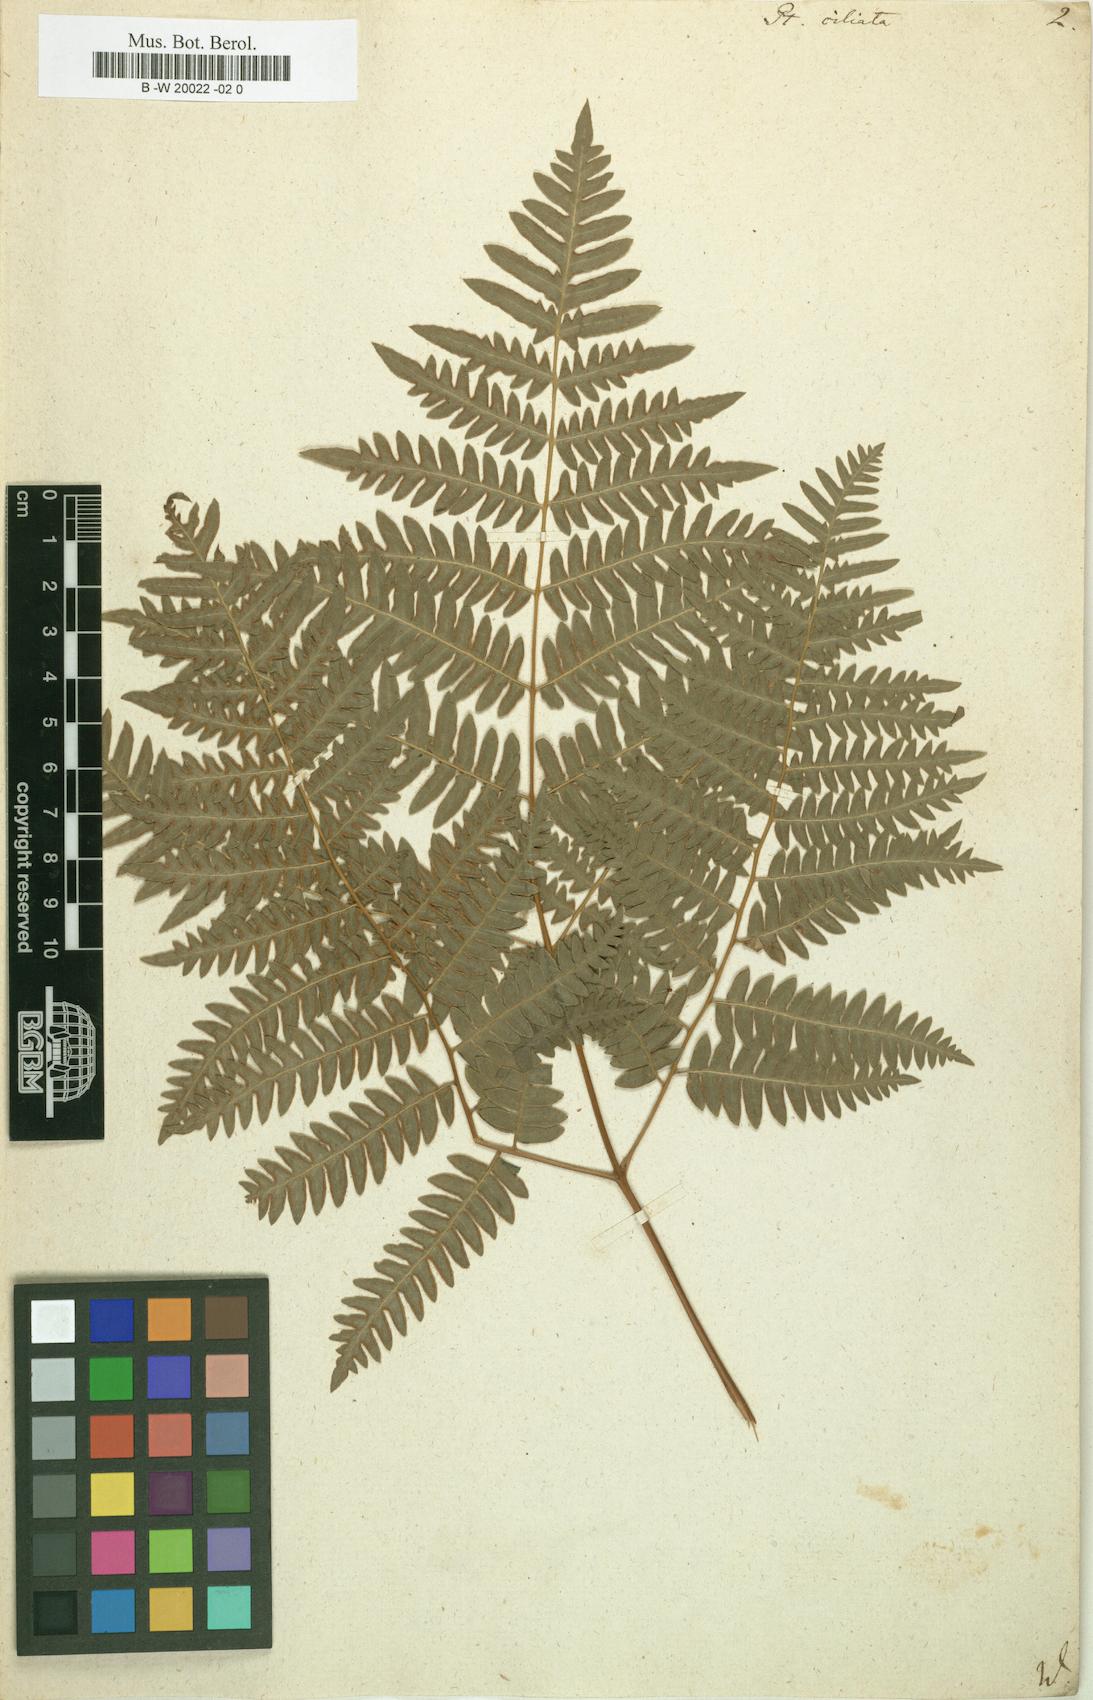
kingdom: Plantae
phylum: Tracheophyta
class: Polypodiopsida
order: Polypodiales
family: Pteridaceae
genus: Pteris
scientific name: Pteris ciliata
